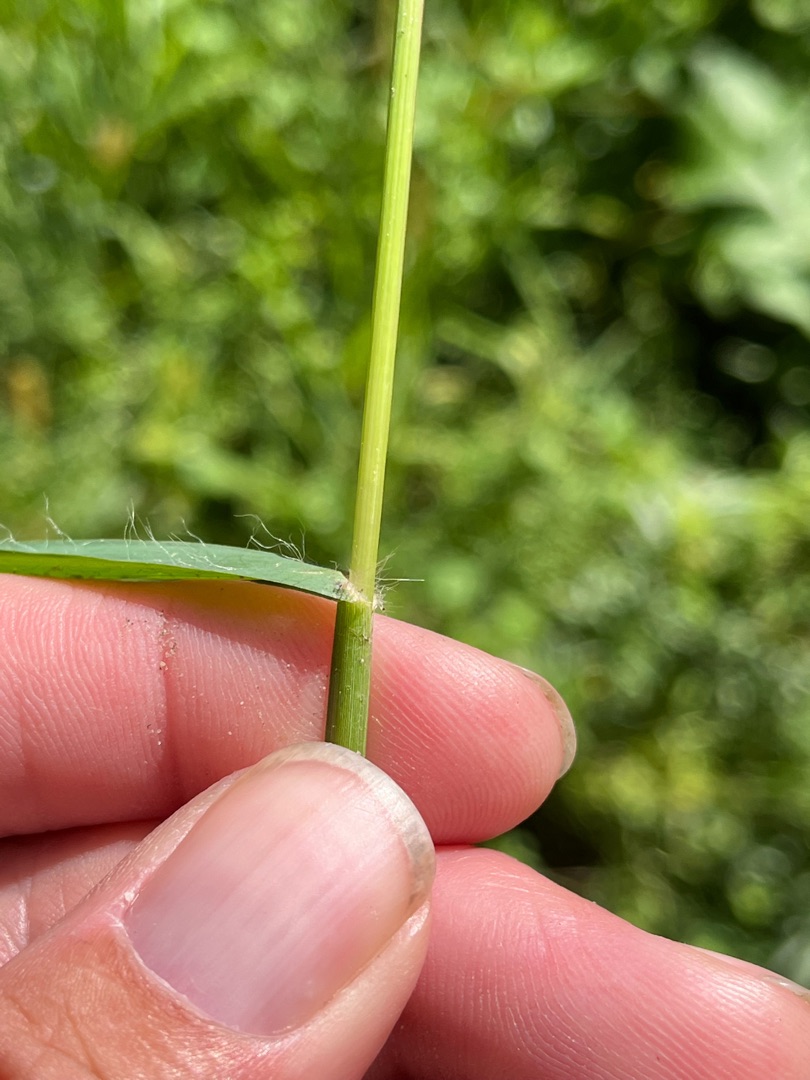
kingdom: Plantae
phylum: Tracheophyta
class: Liliopsida
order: Poales
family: Poaceae
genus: Setaria
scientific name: Setaria pumila
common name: Blågrøn skærmaks
